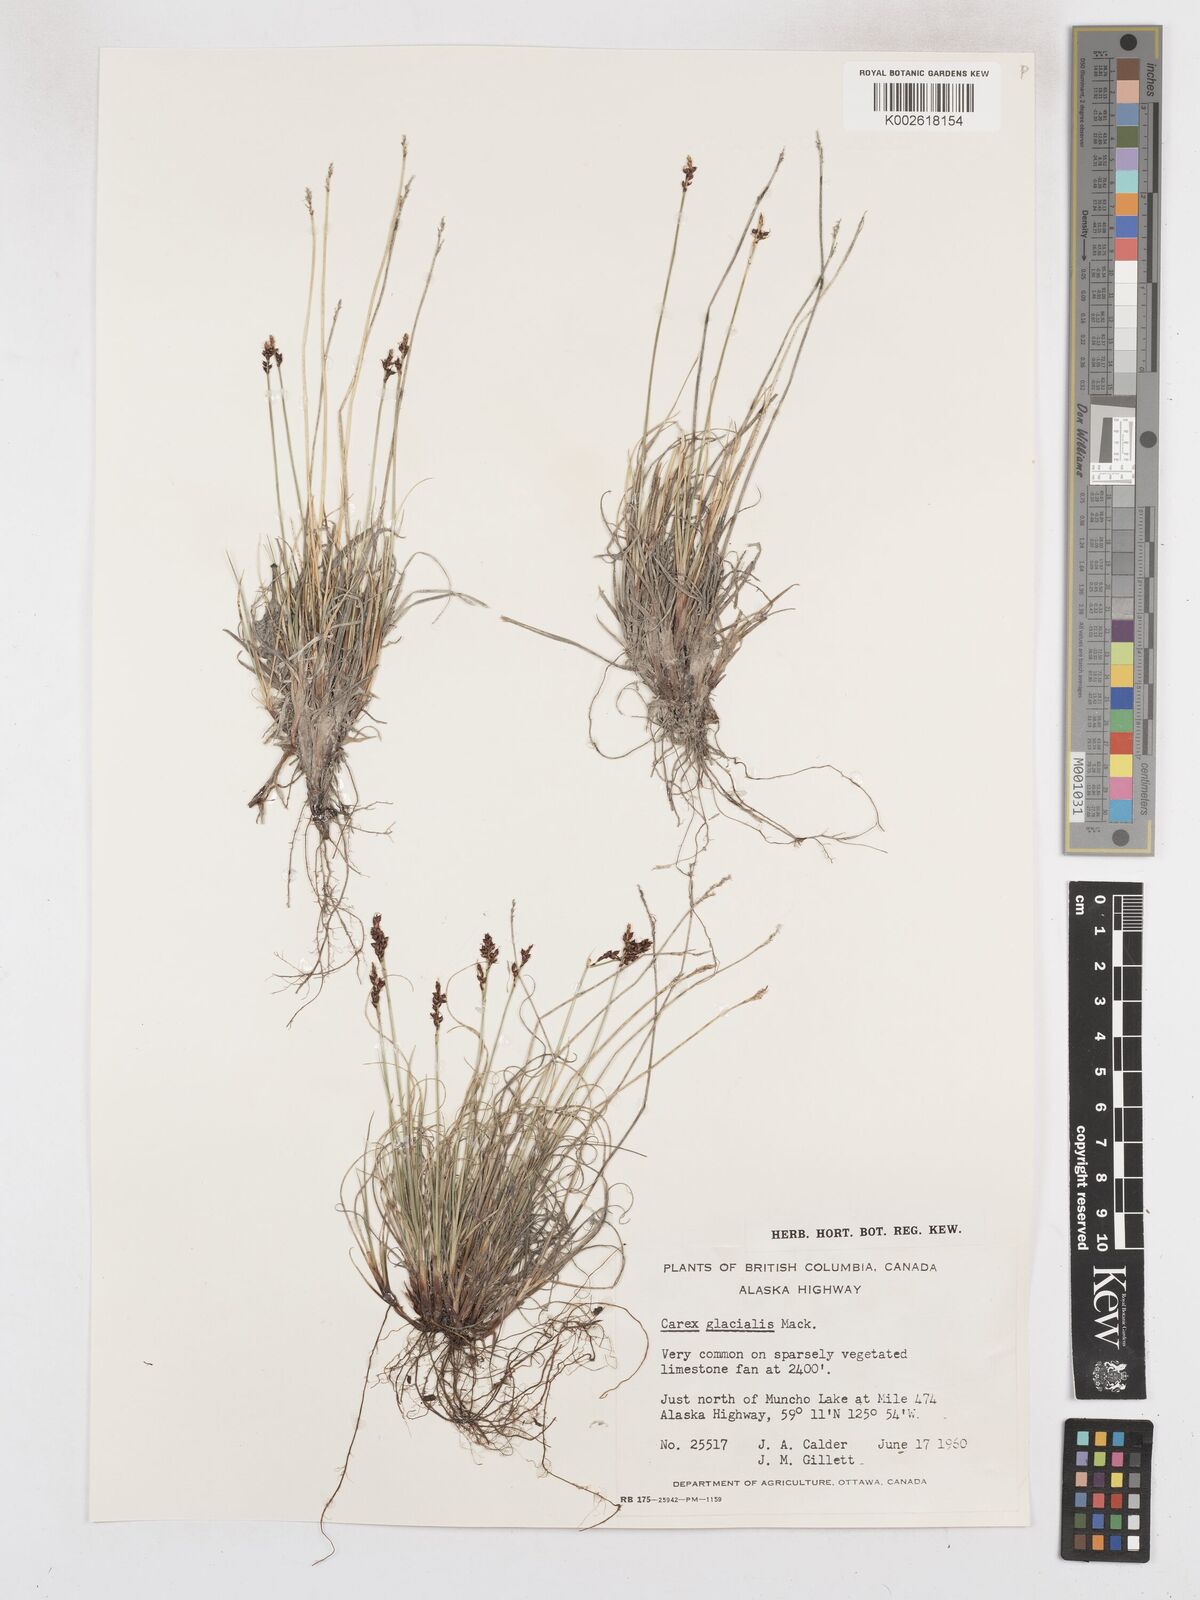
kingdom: Plantae
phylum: Tracheophyta
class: Liliopsida
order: Poales
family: Cyperaceae
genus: Carex
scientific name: Carex glacialis
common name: Newfoundland sedge
